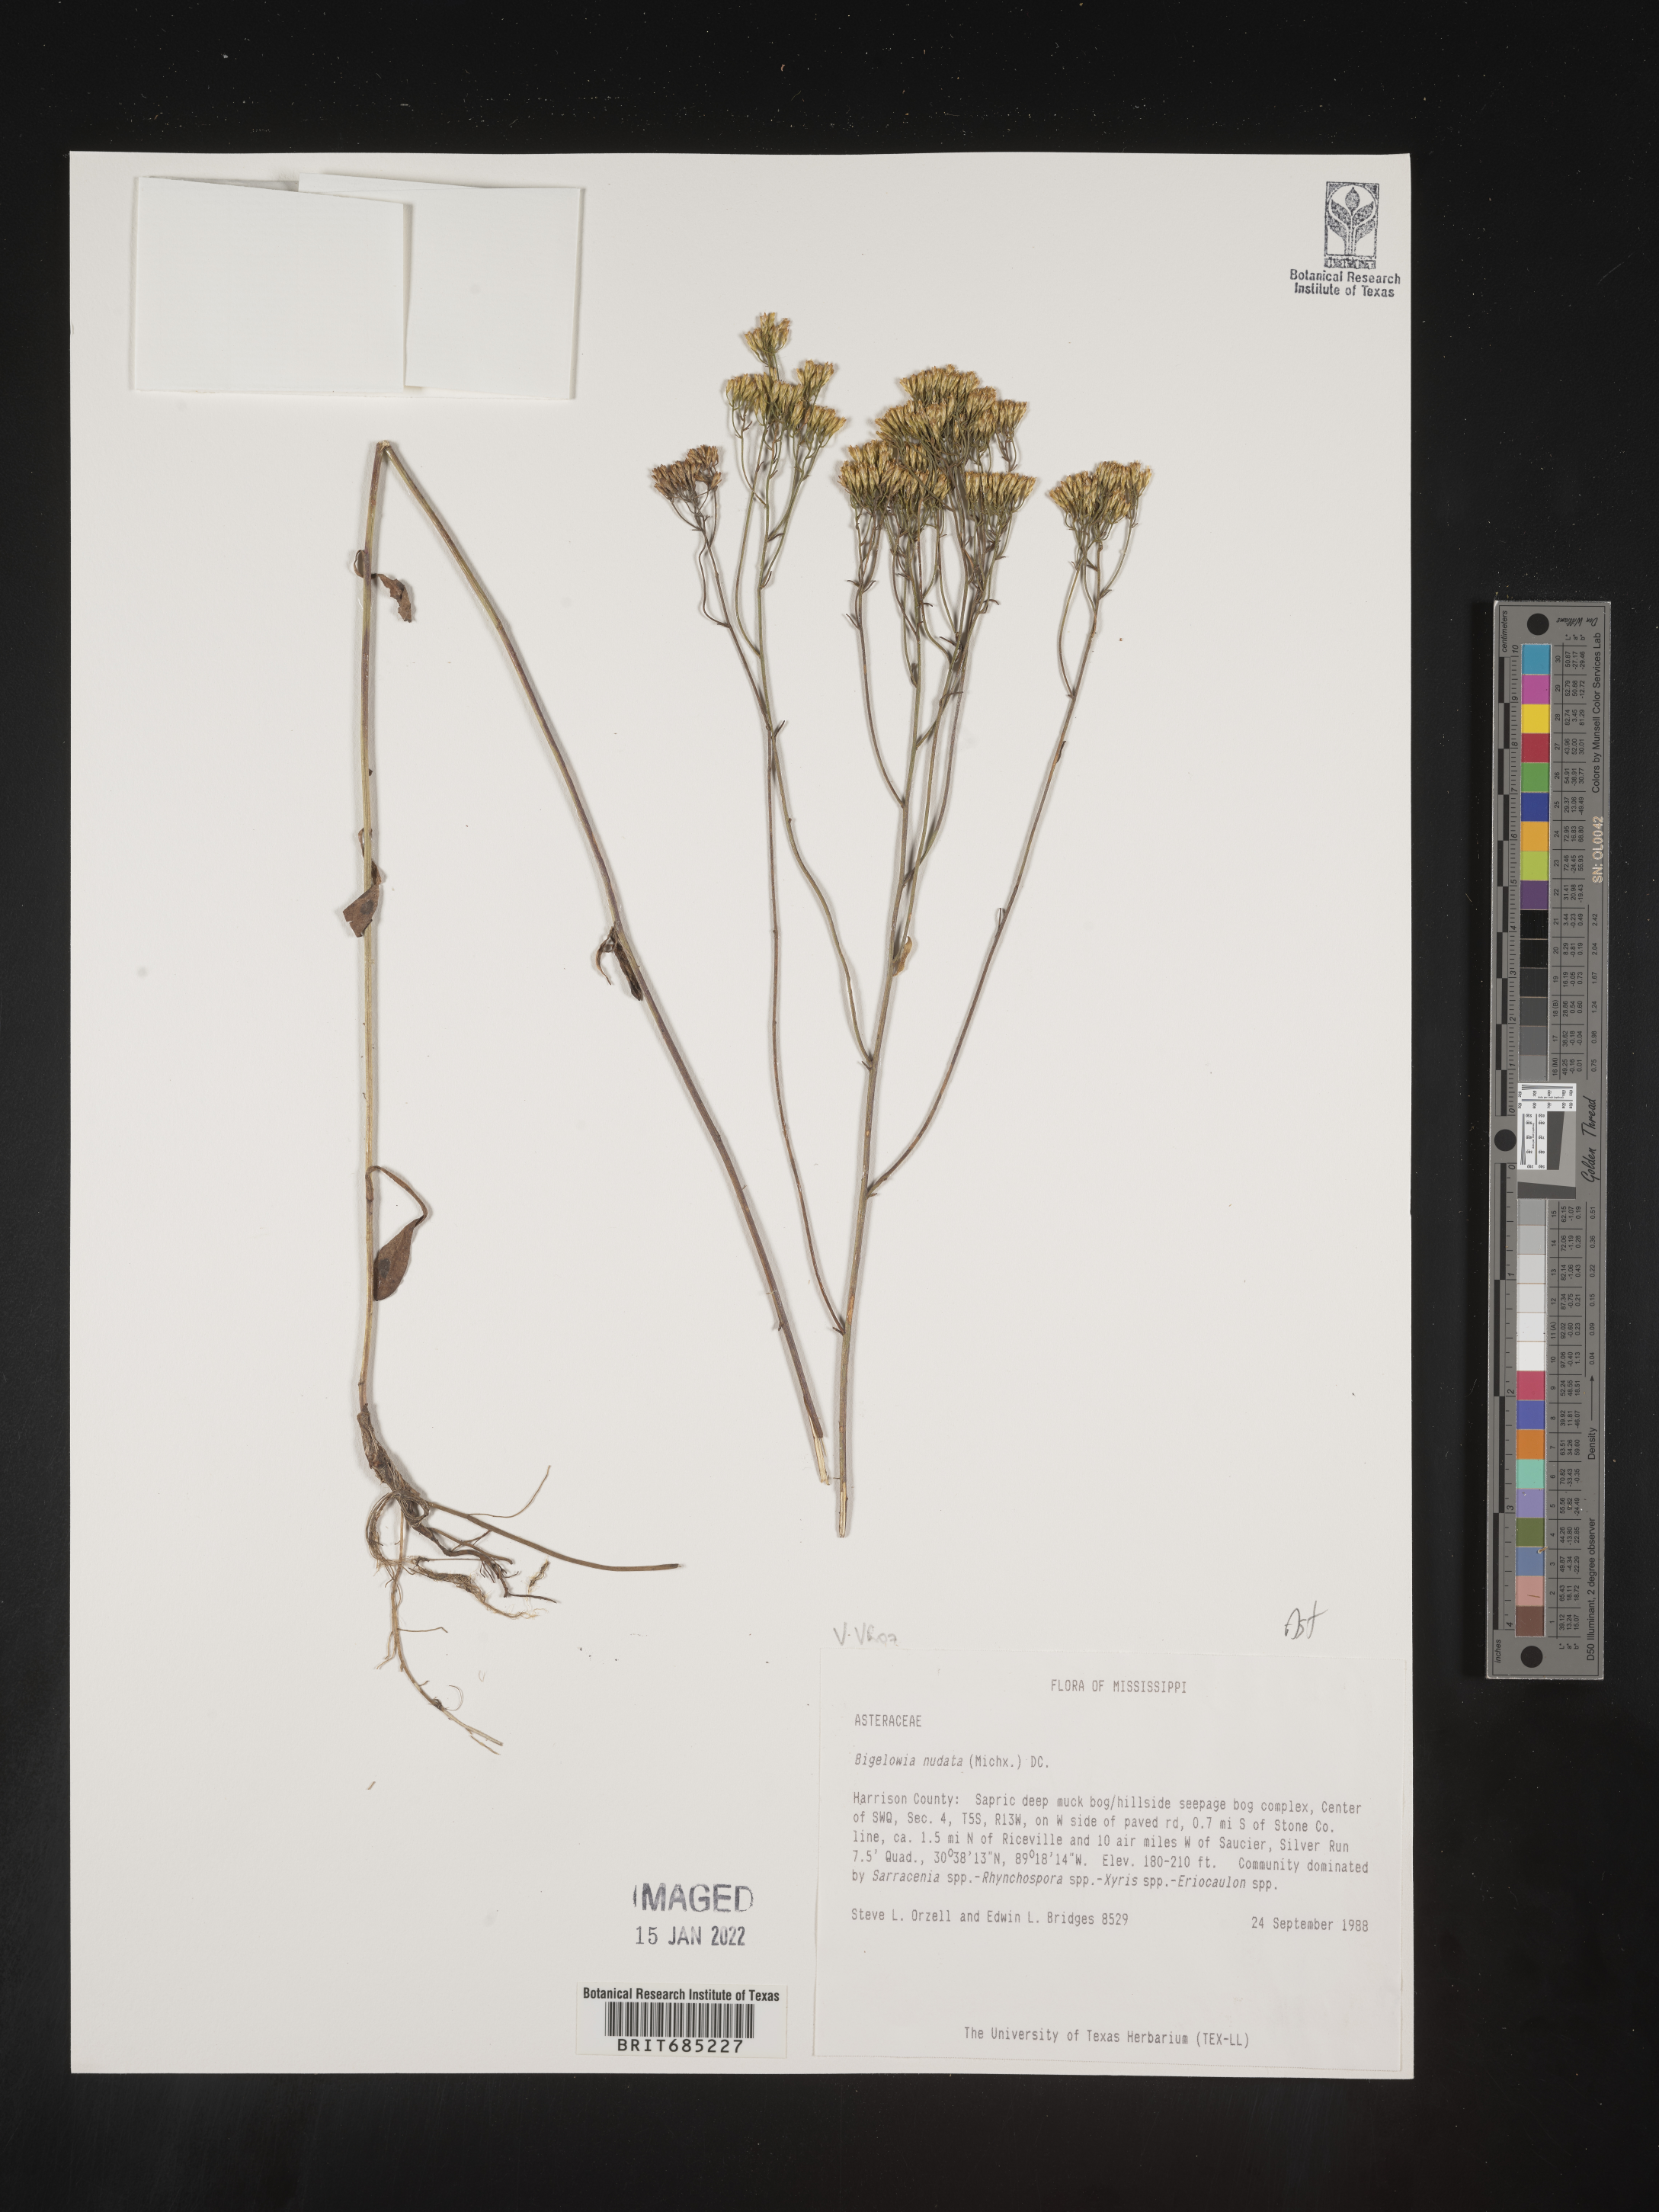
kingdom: Plantae
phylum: Tracheophyta
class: Magnoliopsida
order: Asterales
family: Asteraceae
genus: Bigelowia
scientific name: Bigelowia nudata
